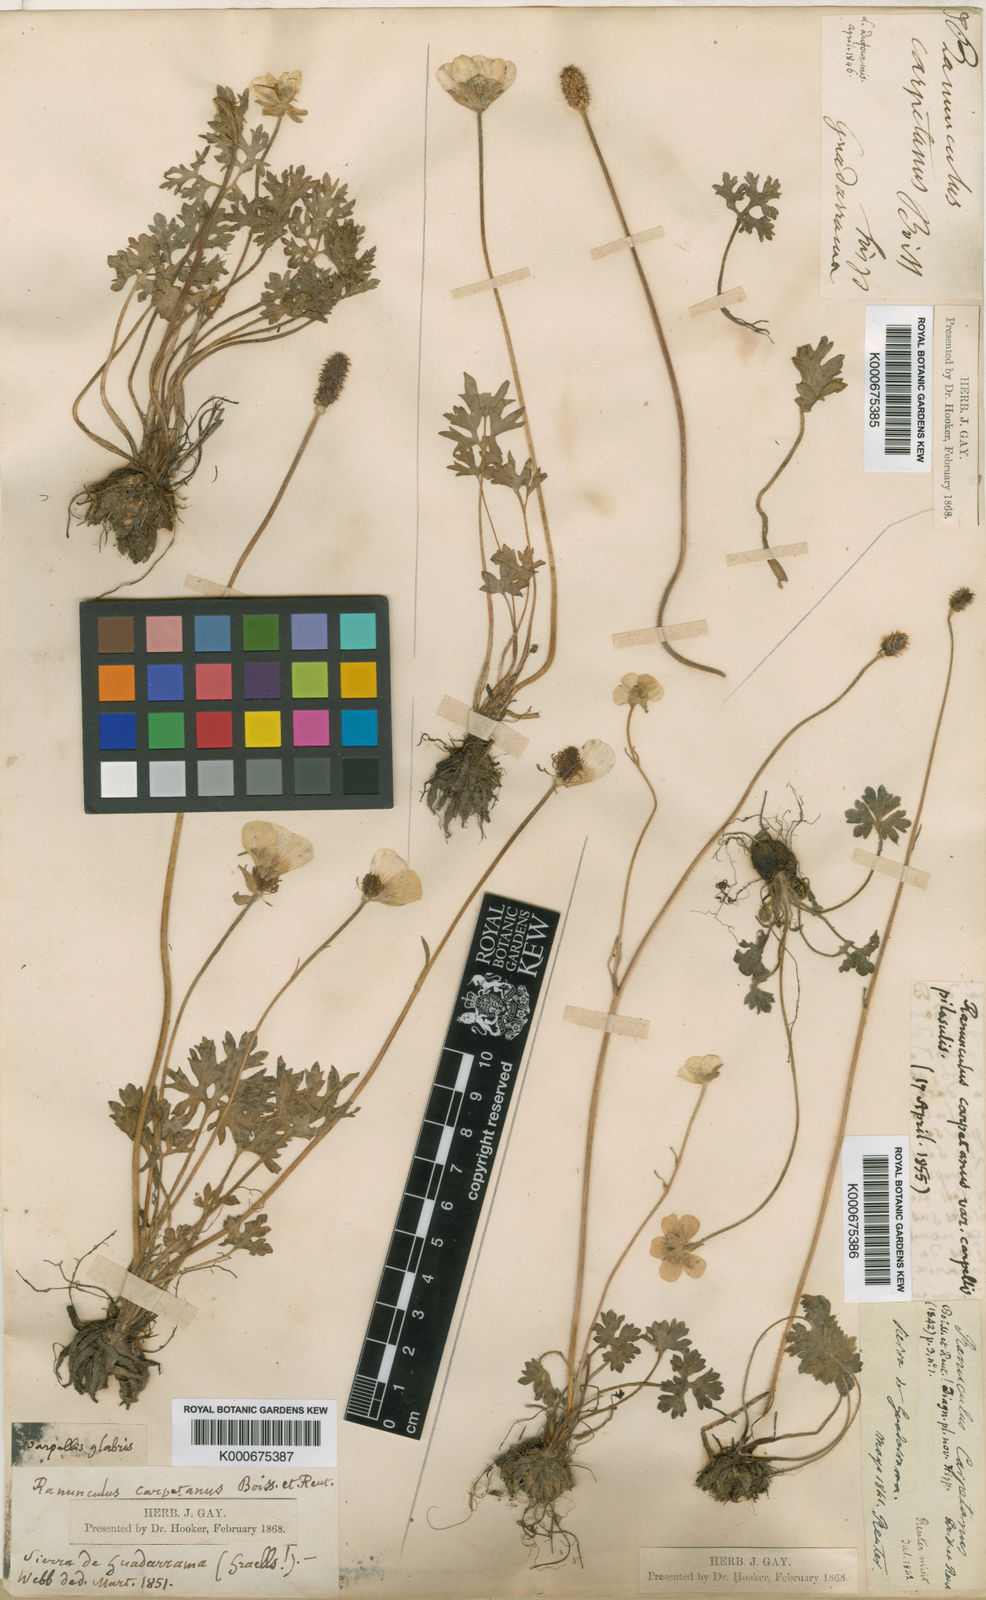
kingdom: Plantae
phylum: Tracheophyta
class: Magnoliopsida
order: Ranunculales
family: Ranunculaceae
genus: Ranunculus
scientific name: Ranunculus gregarius
